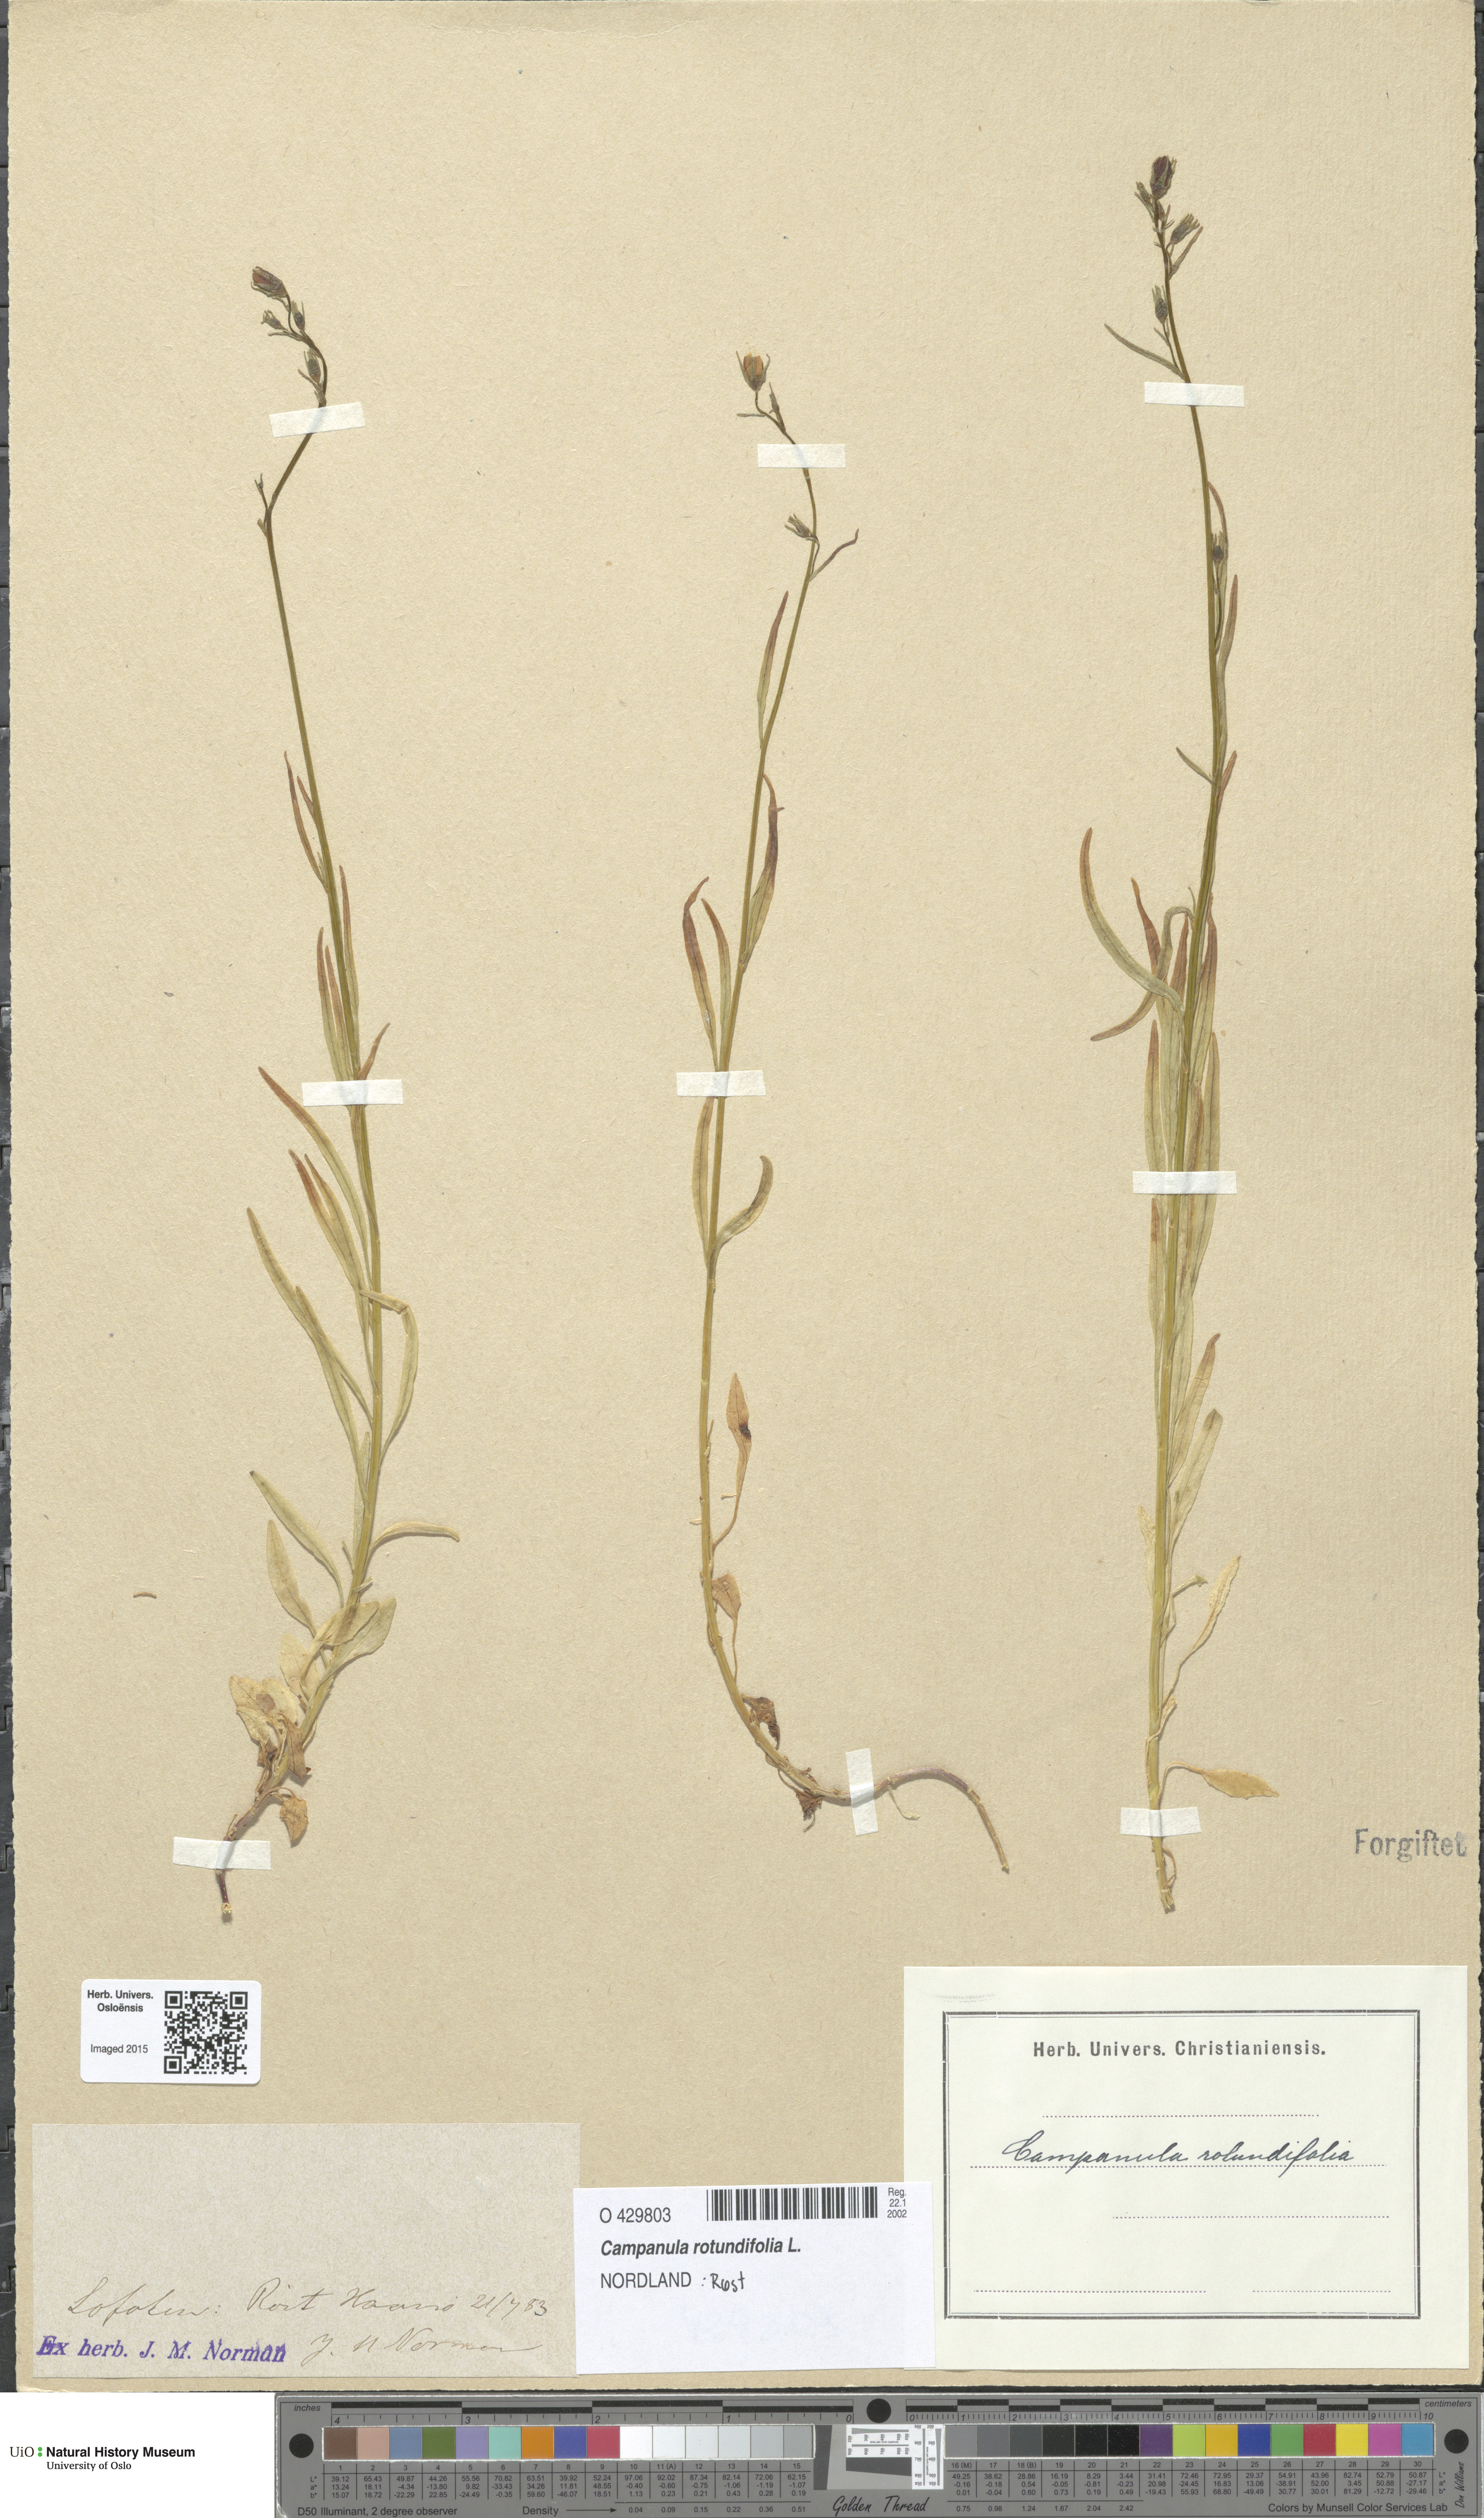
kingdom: Plantae
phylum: Tracheophyta
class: Magnoliopsida
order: Asterales
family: Campanulaceae
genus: Campanula
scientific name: Campanula rotundifolia
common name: Harebell
